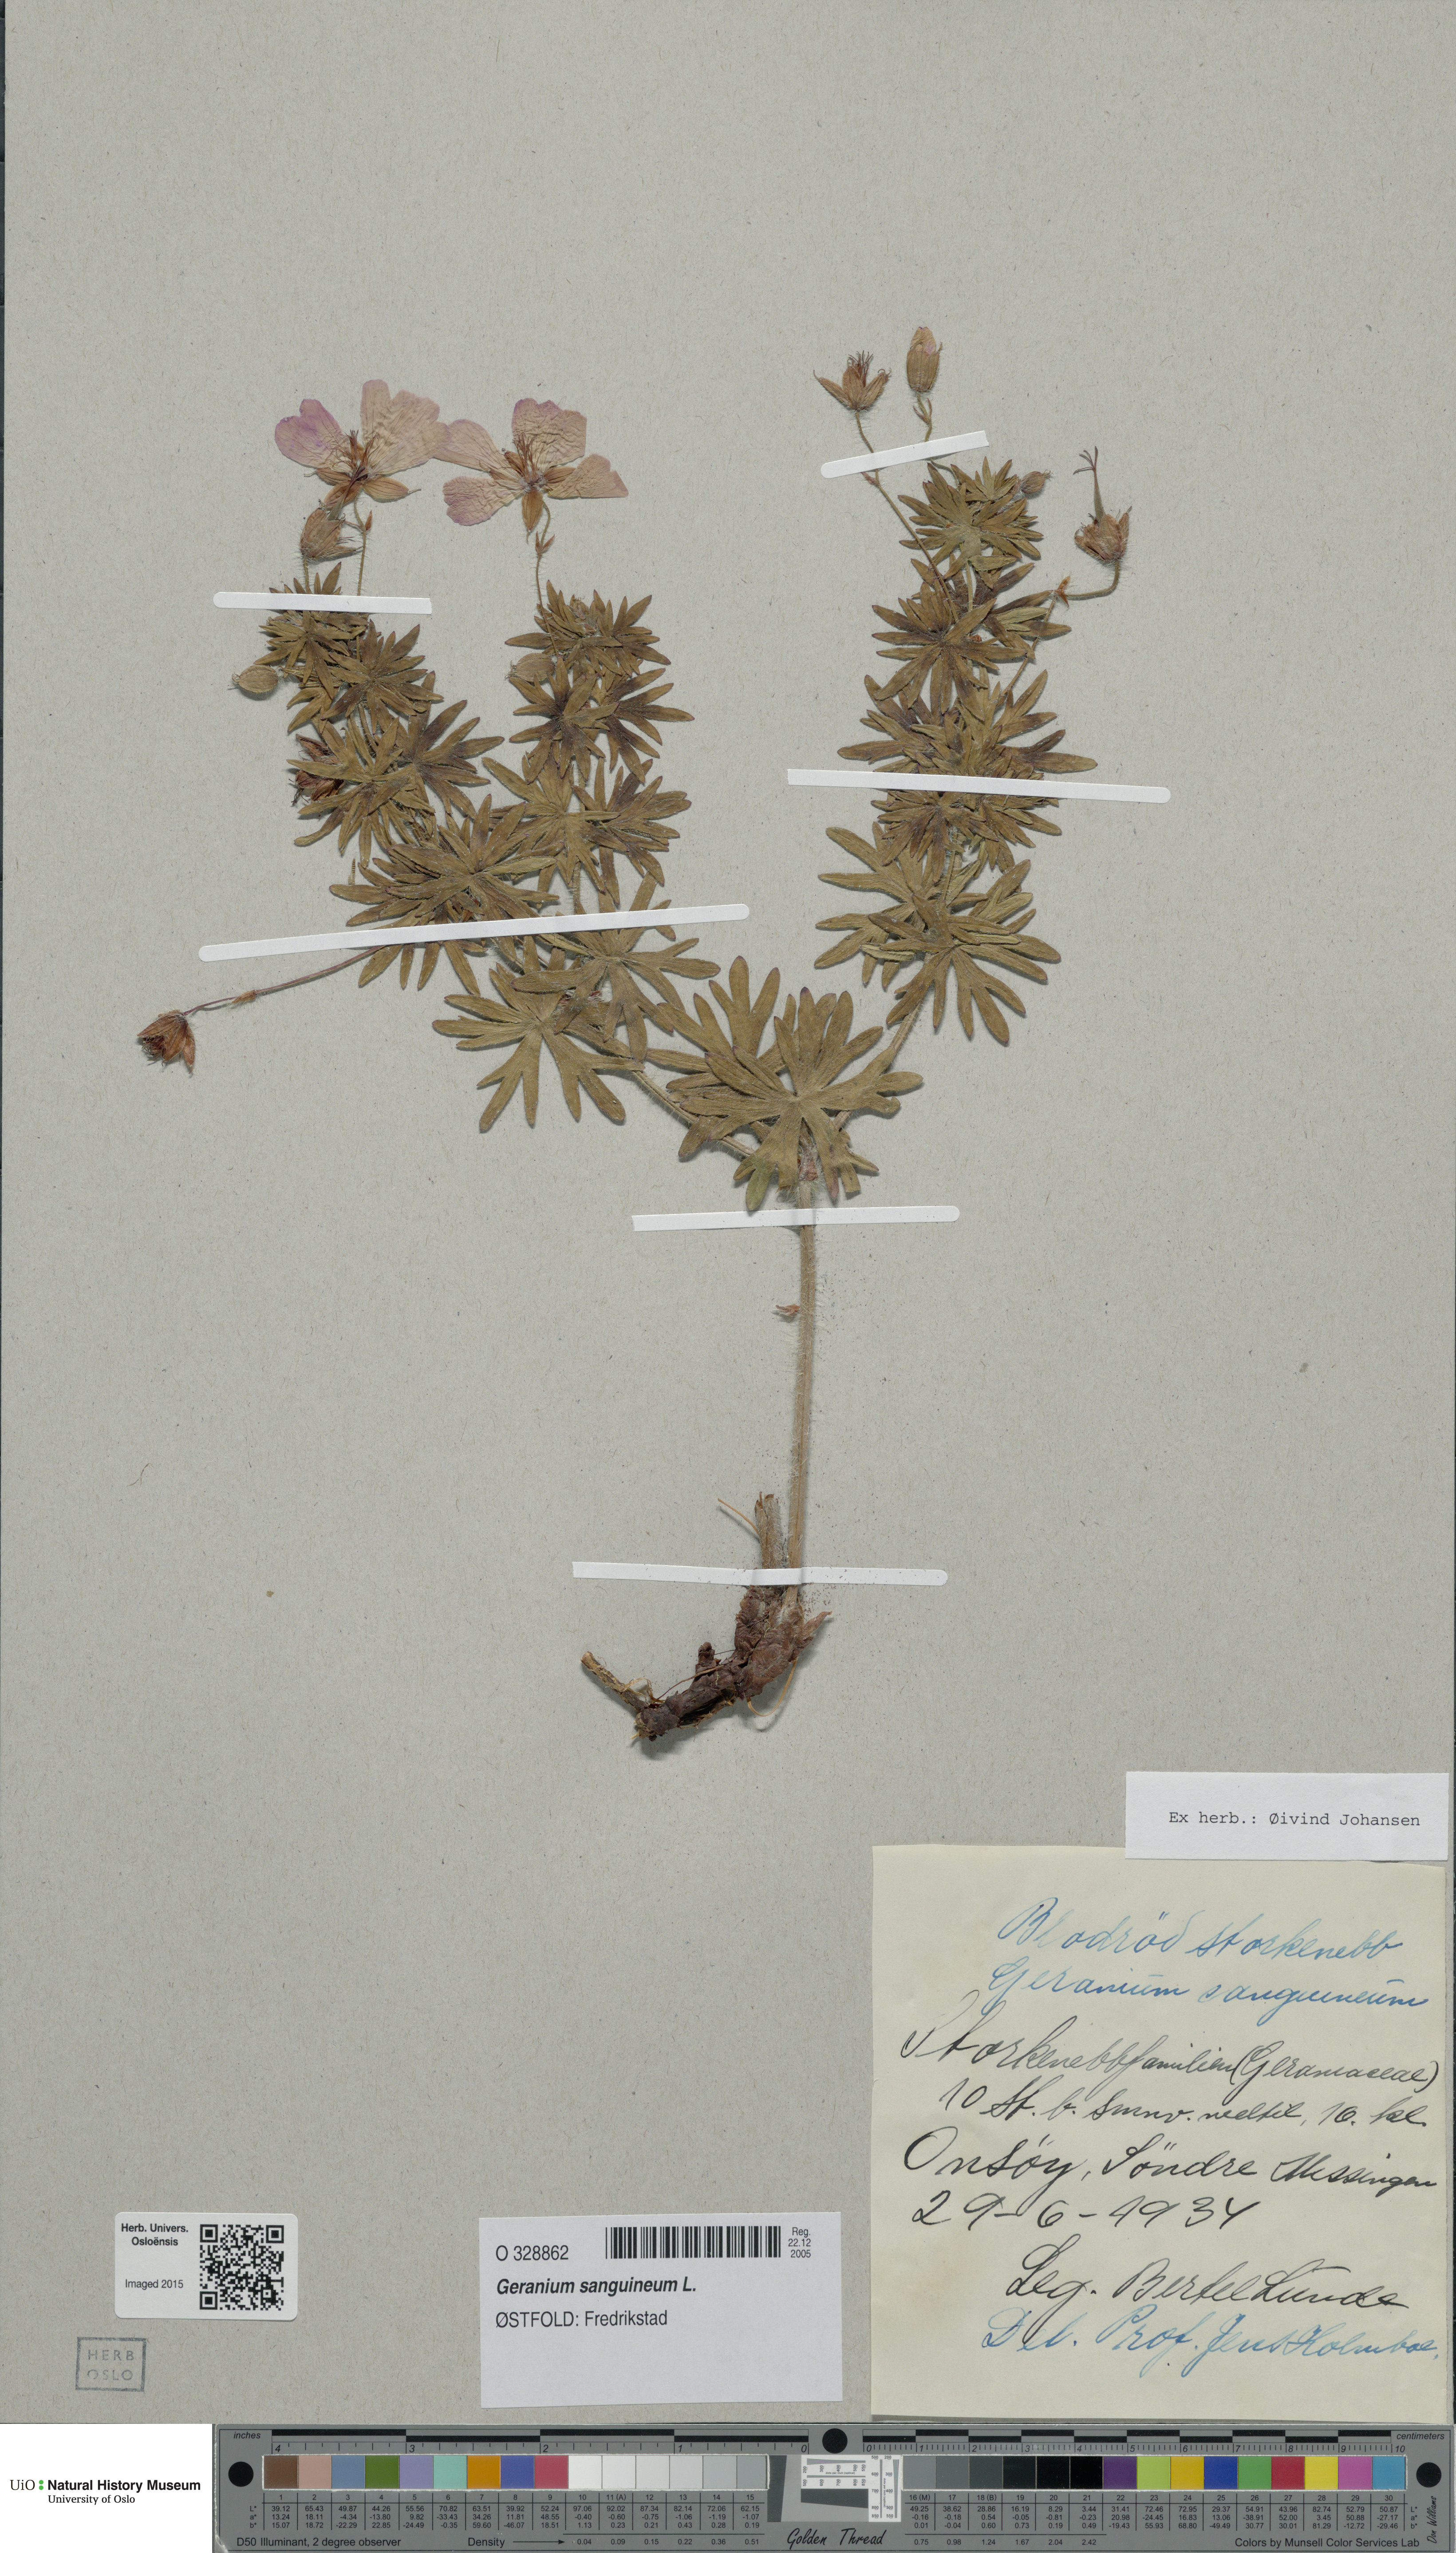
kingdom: Plantae
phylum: Tracheophyta
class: Magnoliopsida
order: Geraniales
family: Geraniaceae
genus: Geranium
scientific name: Geranium sanguineum
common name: Bloody crane's-bill
